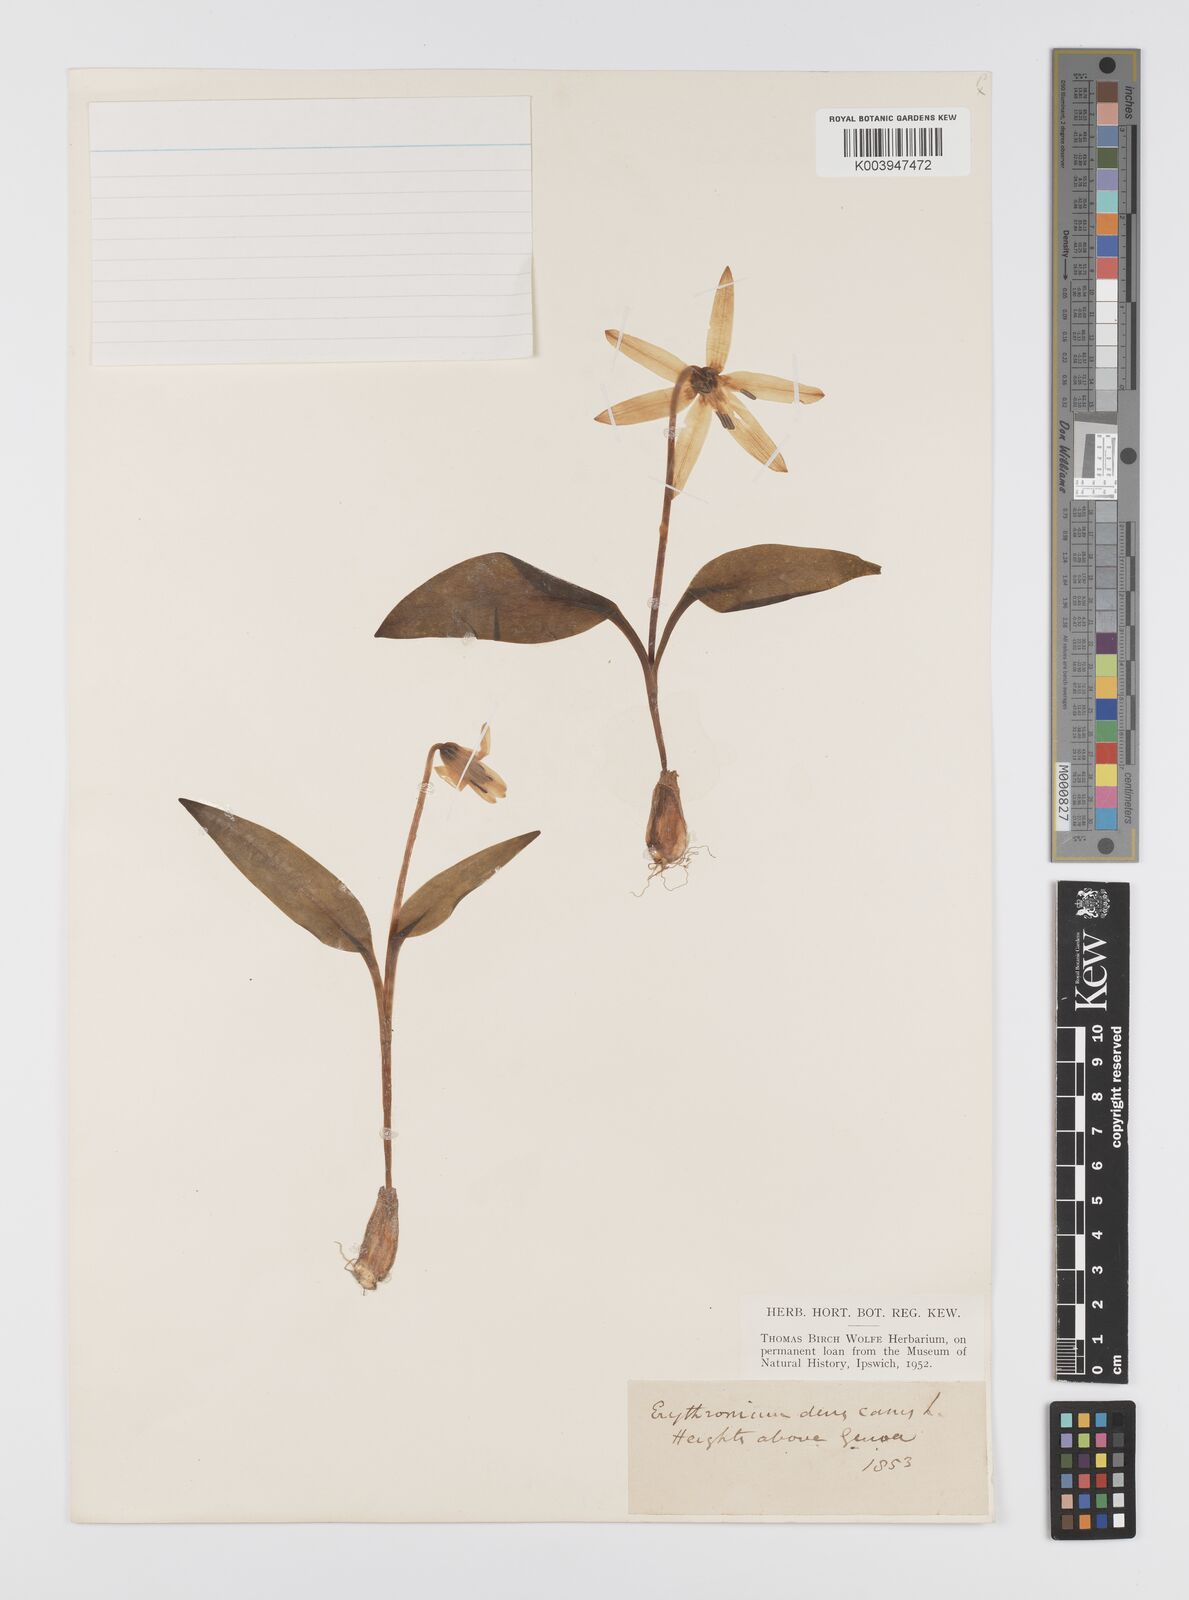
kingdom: Plantae
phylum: Tracheophyta
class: Liliopsida
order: Liliales
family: Liliaceae
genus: Erythronium
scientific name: Erythronium dens-canis
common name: Dog's-tooth-violet
